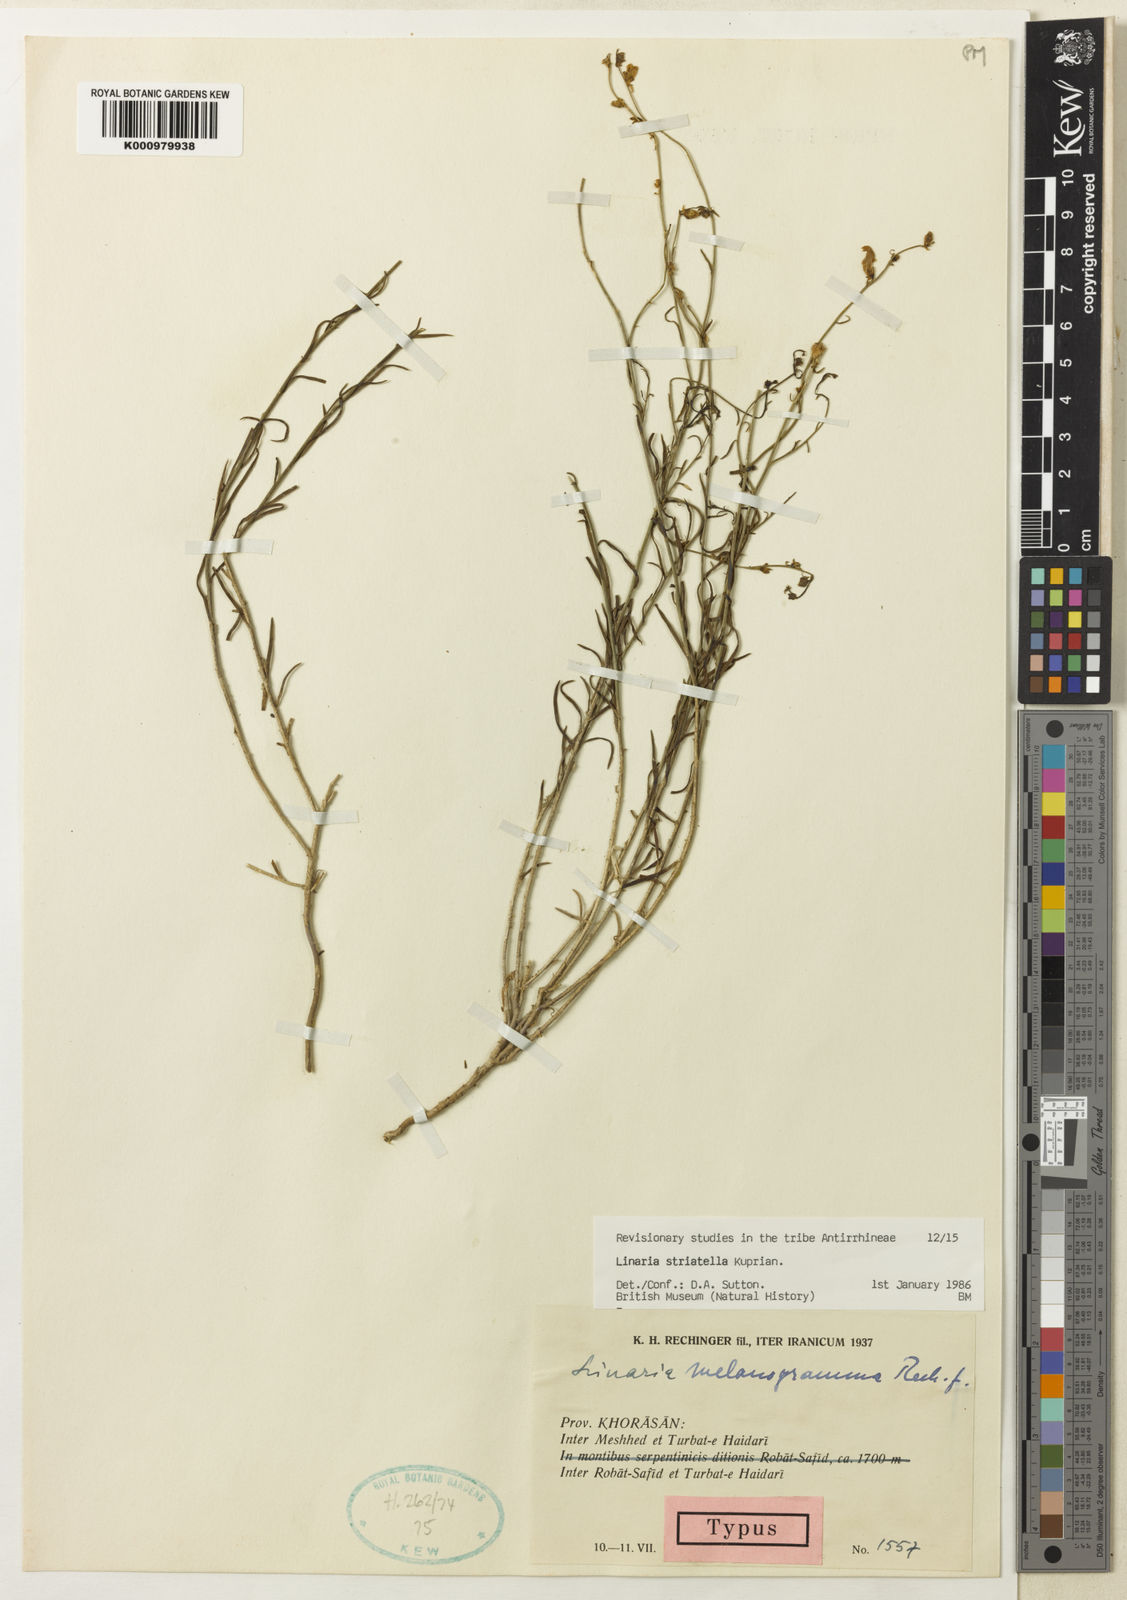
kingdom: Plantae
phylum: Tracheophyta
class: Magnoliopsida
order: Lamiales
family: Plantaginaceae
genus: Linaria
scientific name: Linaria striatella
